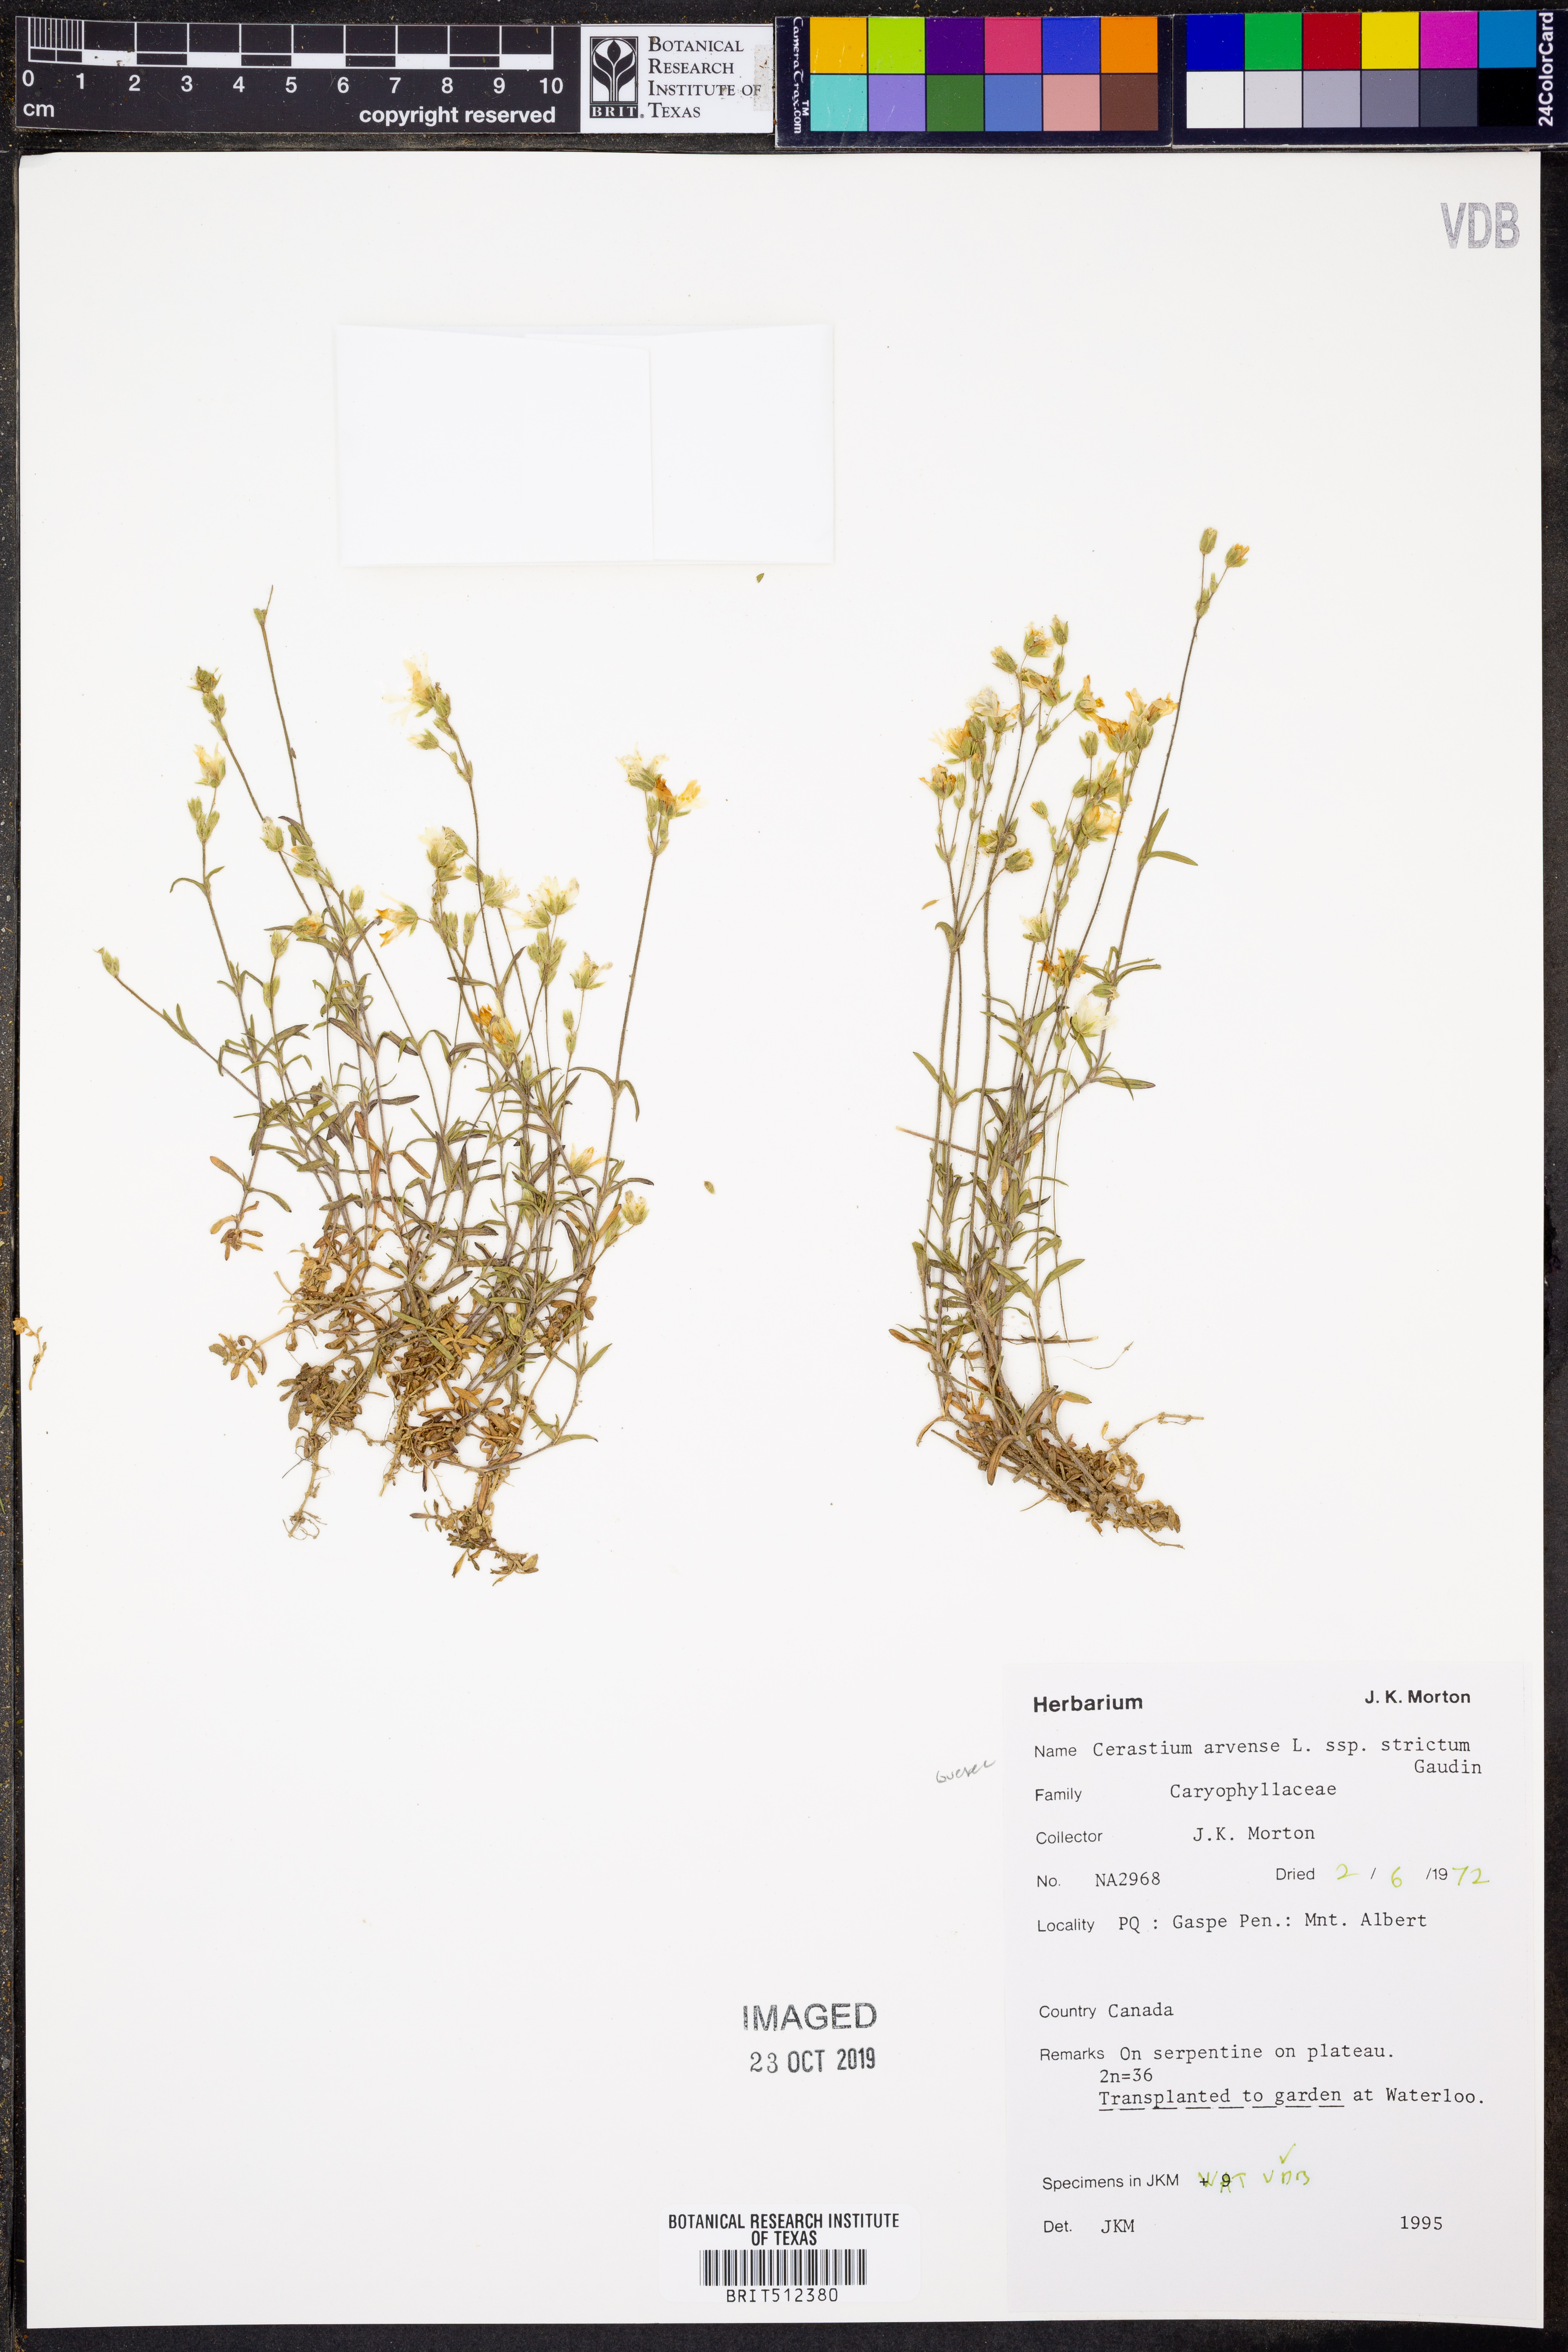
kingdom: Plantae
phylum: Tracheophyta
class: Magnoliopsida
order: Caryophyllales
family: Caryophyllaceae
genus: Cerastium
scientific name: Cerastium elongatum
